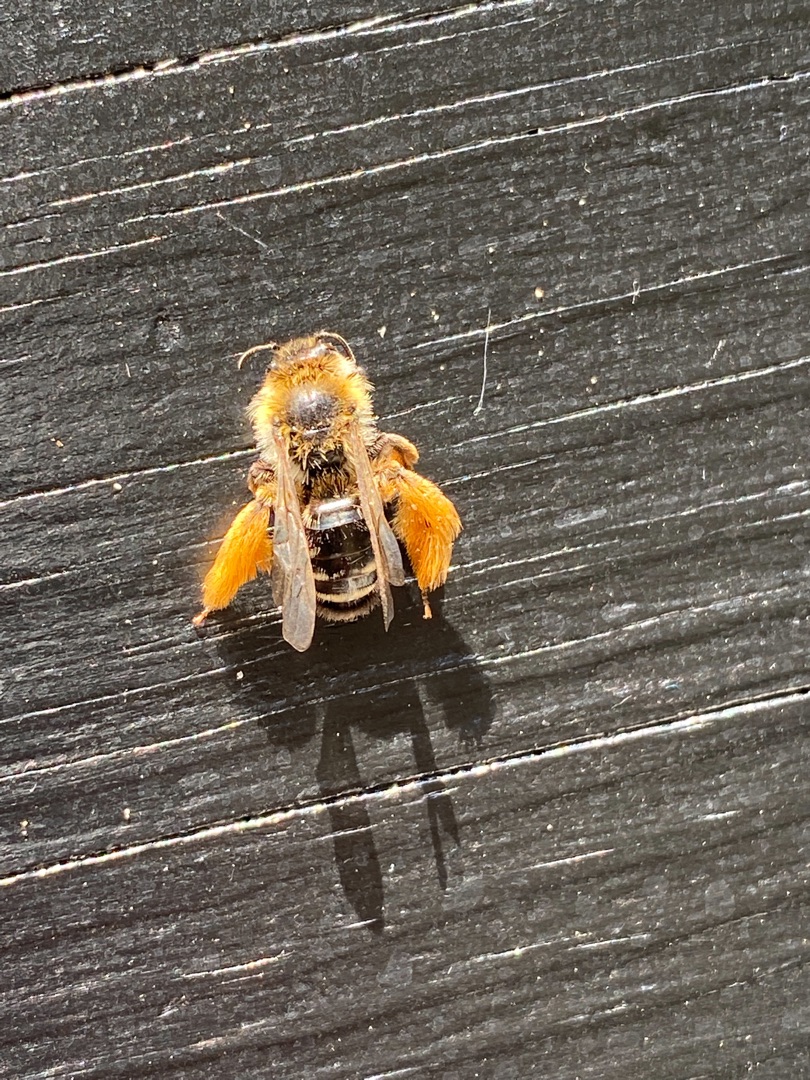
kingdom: Animalia
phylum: Arthropoda
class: Insecta
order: Hymenoptera
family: Melittidae
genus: Dasypoda
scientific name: Dasypoda hirtipes
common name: Pragtbuksebi
